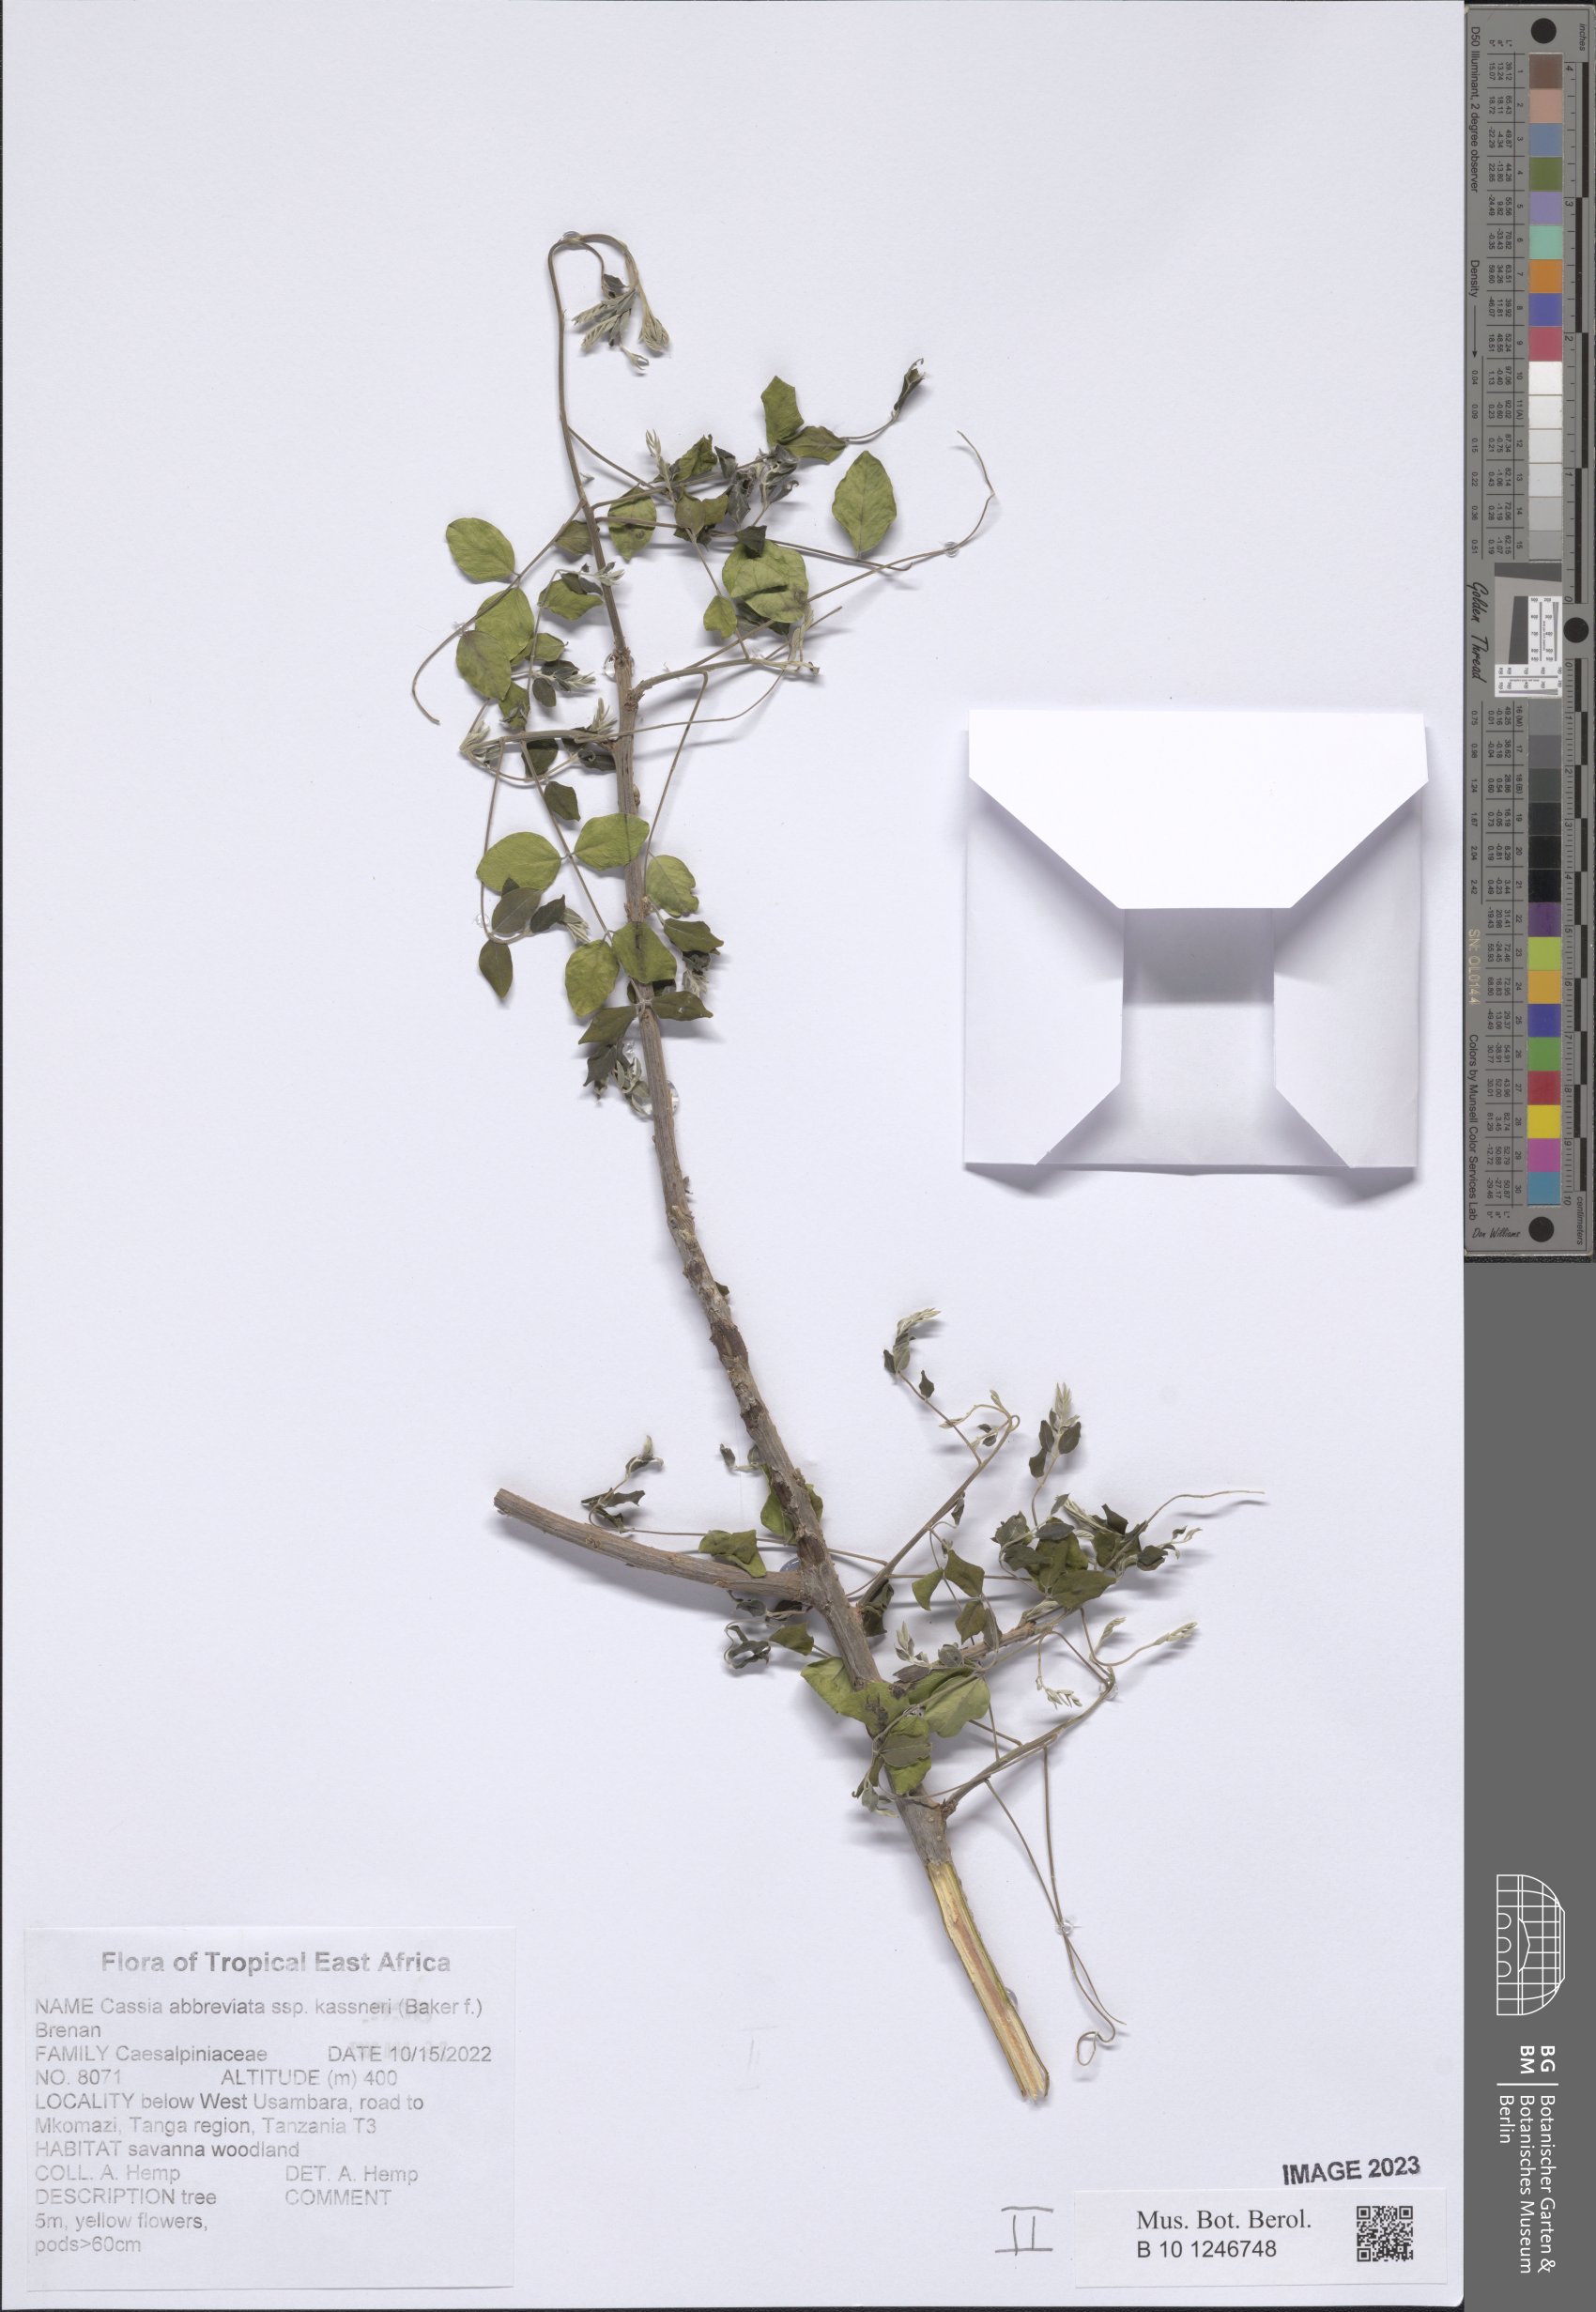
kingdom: Plantae
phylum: Tracheophyta
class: Magnoliopsida
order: Fabales
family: Fabaceae
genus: Cassia
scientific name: Cassia abbreviata
